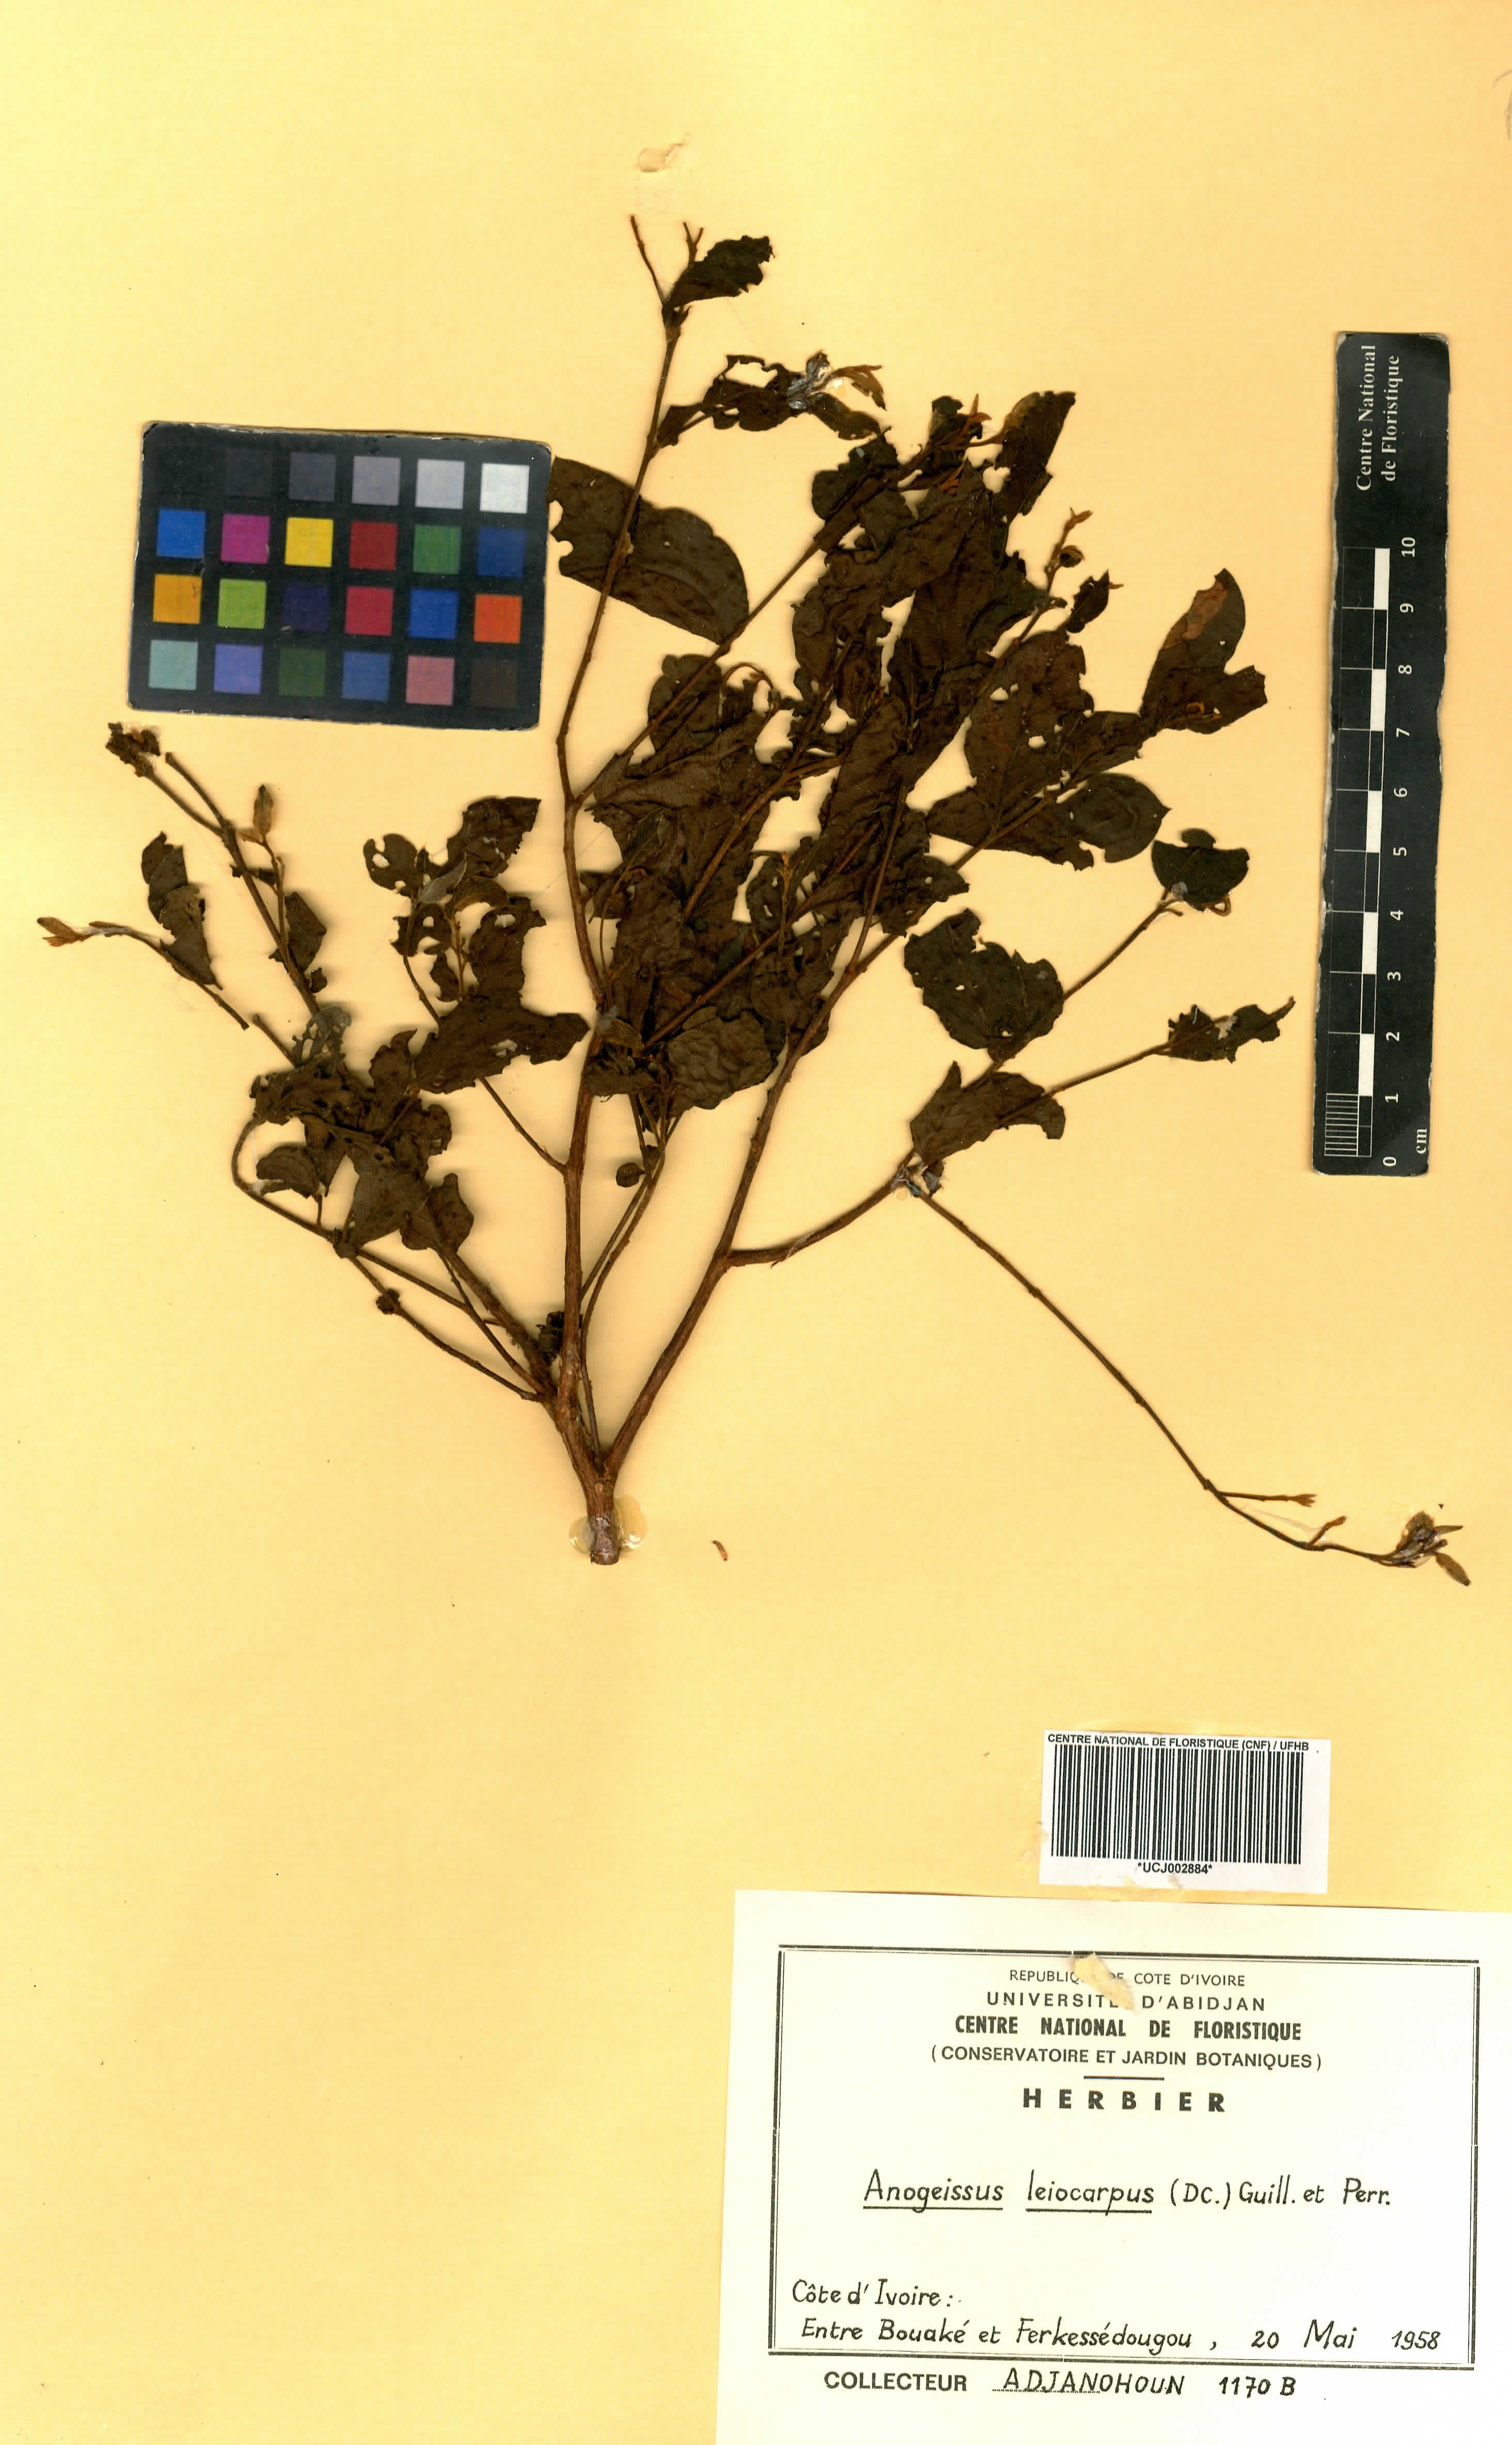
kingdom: Plantae
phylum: Tracheophyta
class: Magnoliopsida
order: Myrtales
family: Combretaceae
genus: Terminalia
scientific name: Terminalia leiocarpa
